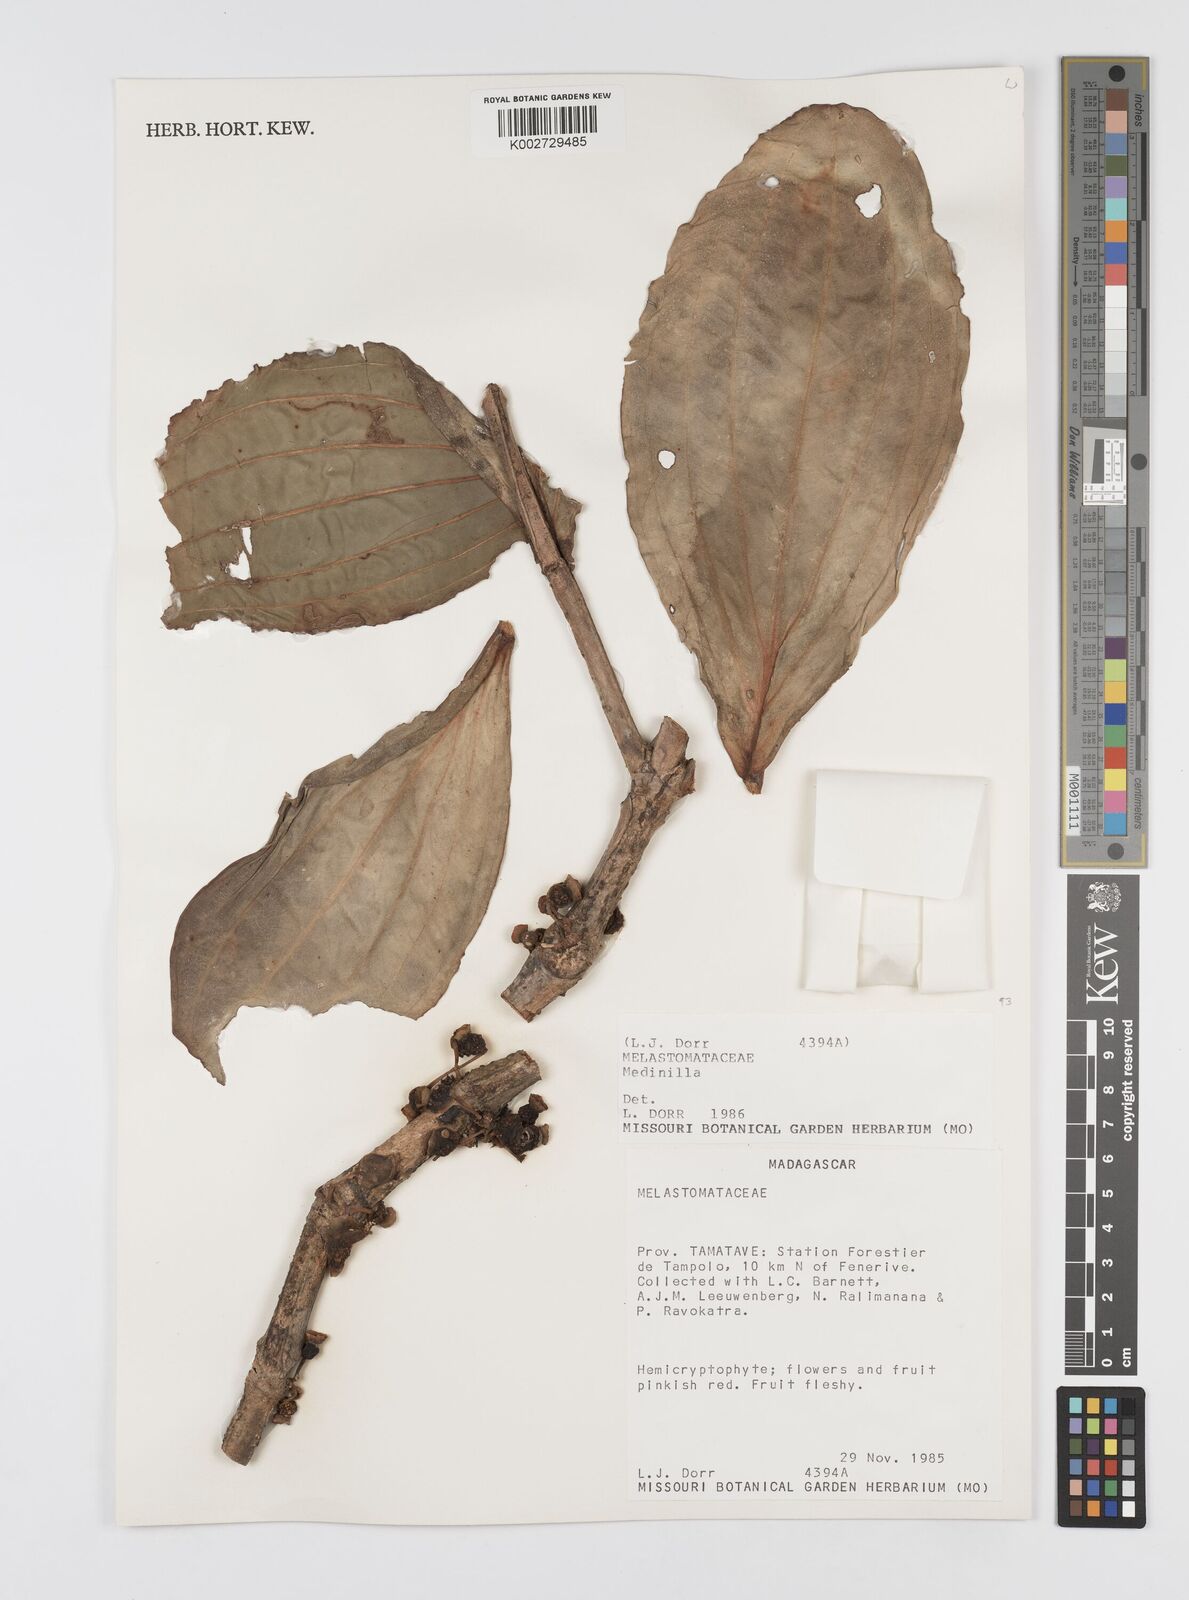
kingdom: Plantae
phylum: Tracheophyta
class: Magnoliopsida
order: Myrtales
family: Melastomataceae
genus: Medinilla
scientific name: Medinilla
